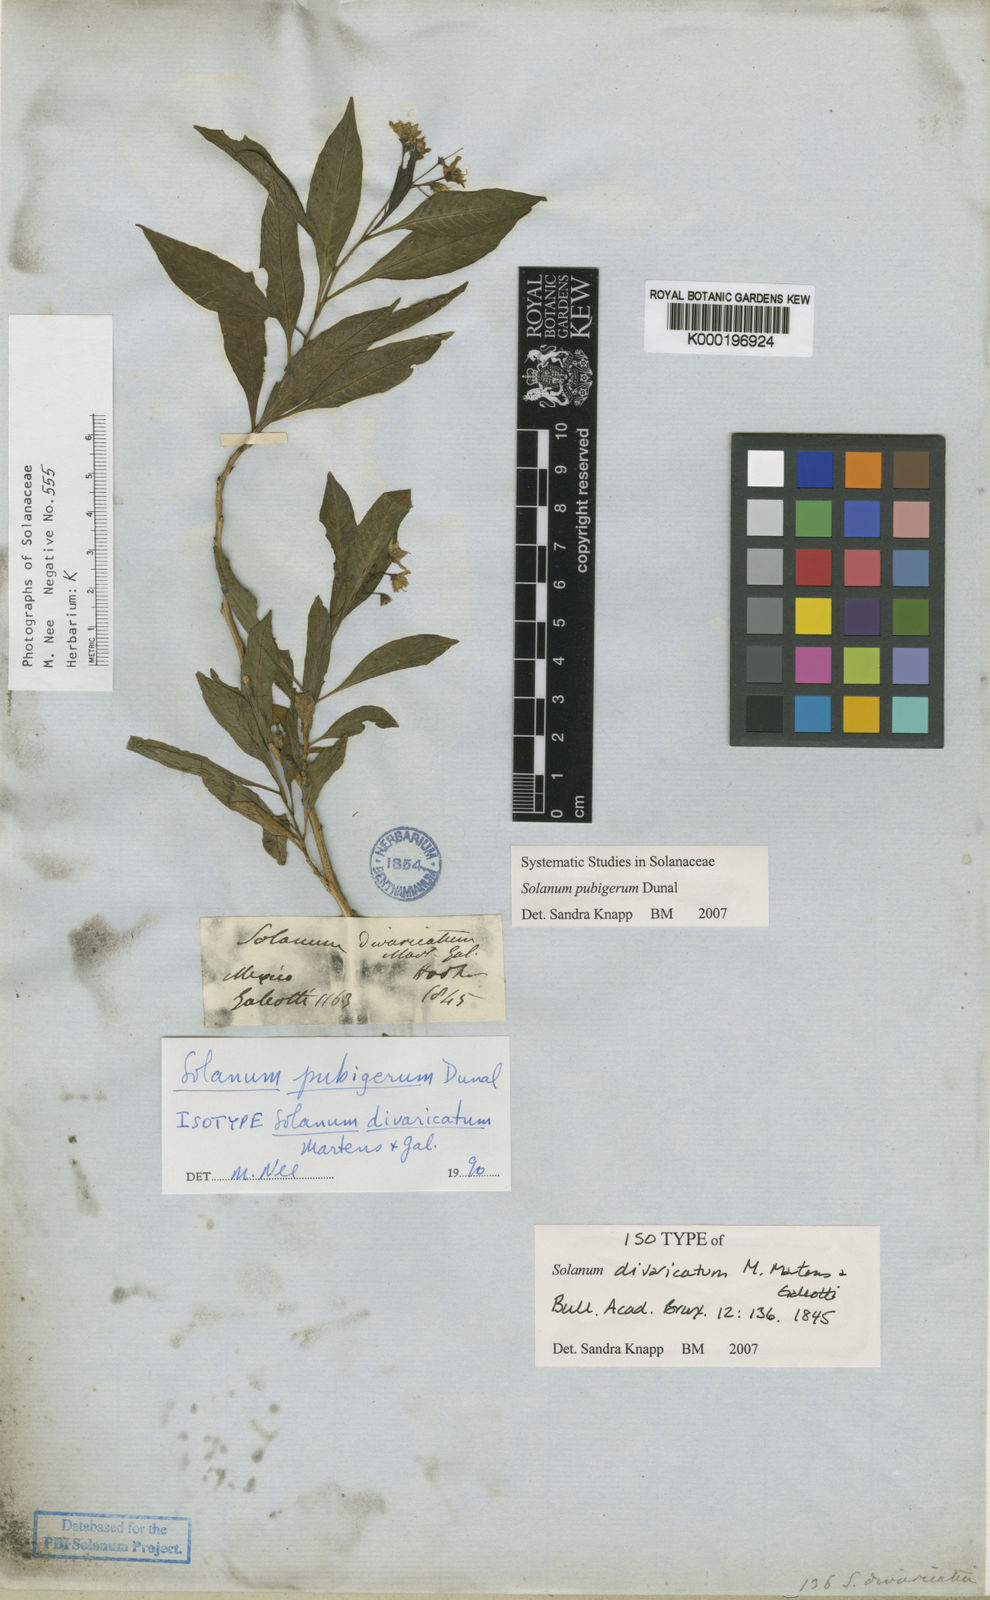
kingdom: Plantae
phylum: Tracheophyta
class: Magnoliopsida
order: Solanales
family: Solanaceae
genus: Solanum
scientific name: Solanum pubigerum
